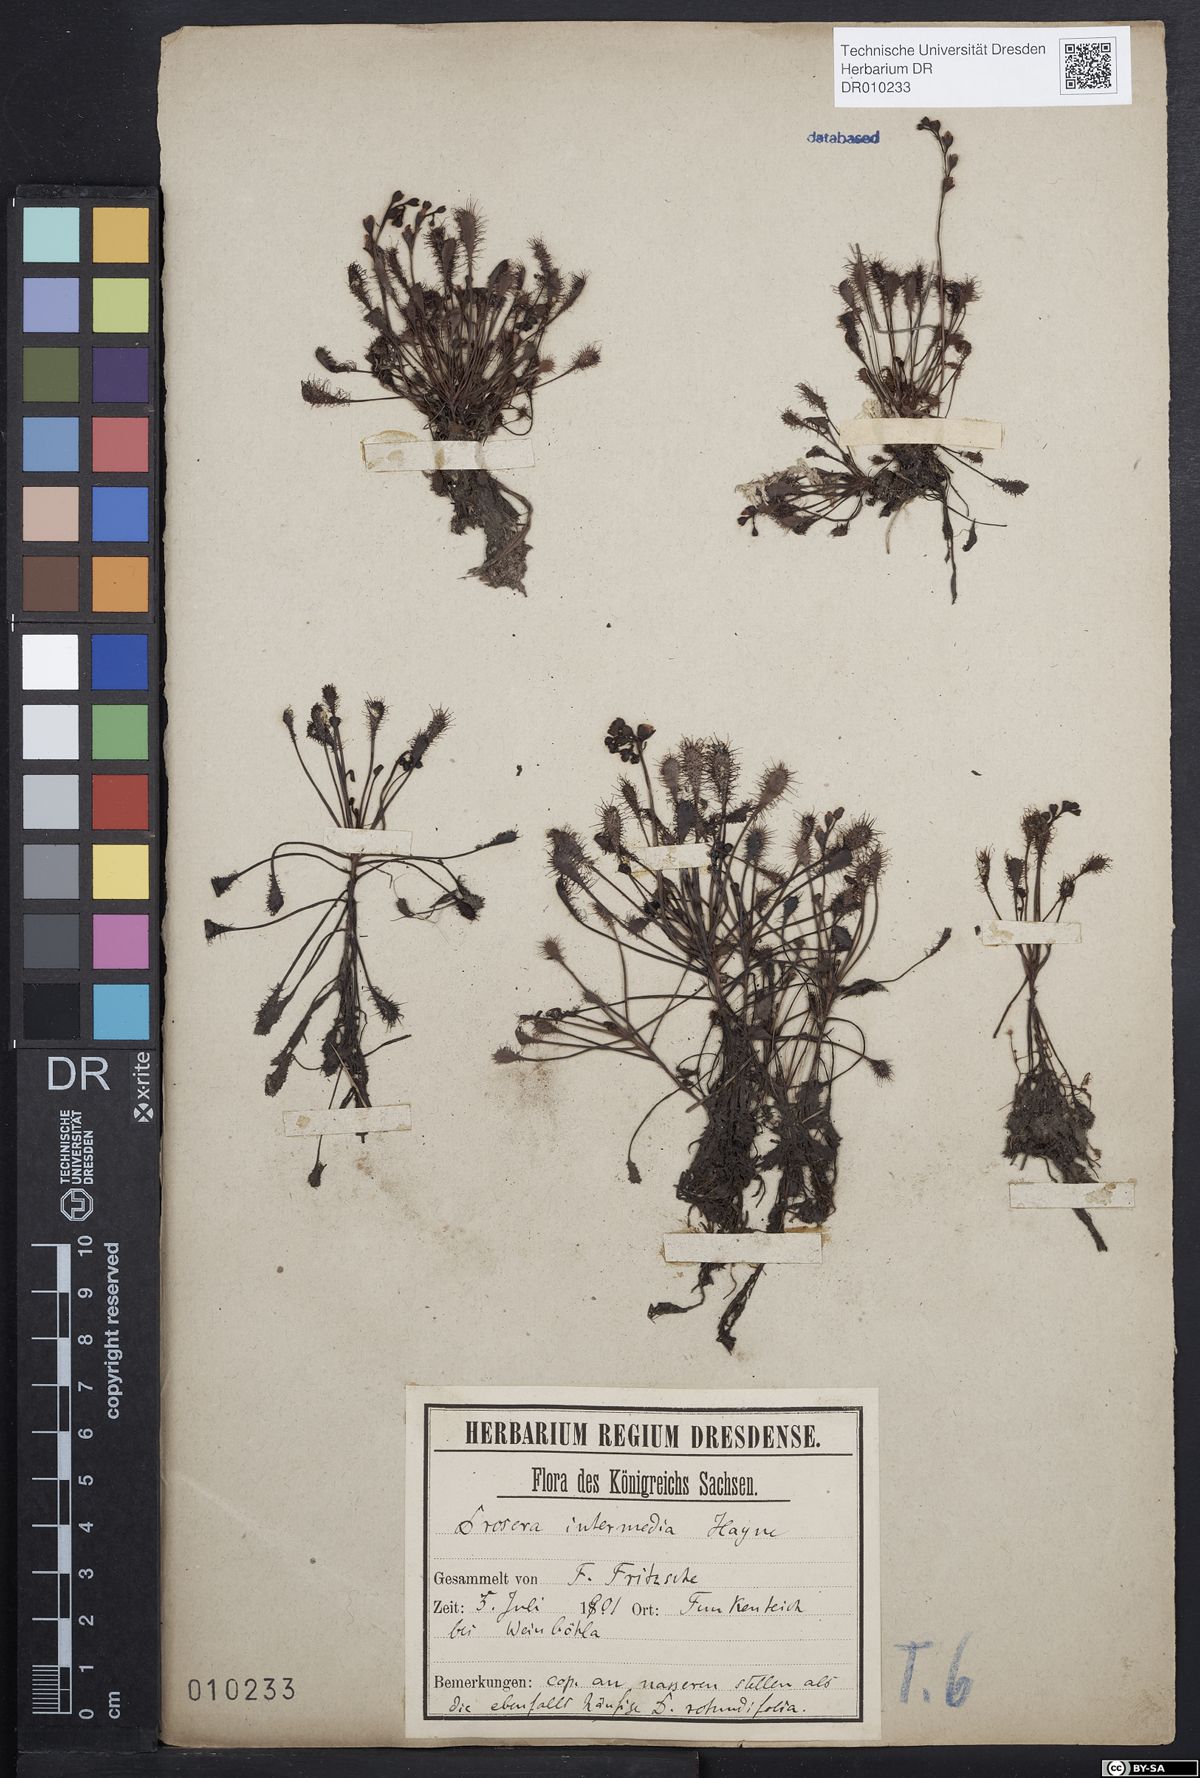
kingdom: Plantae
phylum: Tracheophyta
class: Magnoliopsida
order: Caryophyllales
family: Droseraceae
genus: Drosera
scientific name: Drosera intermedia
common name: Oblong-leaved sundew
